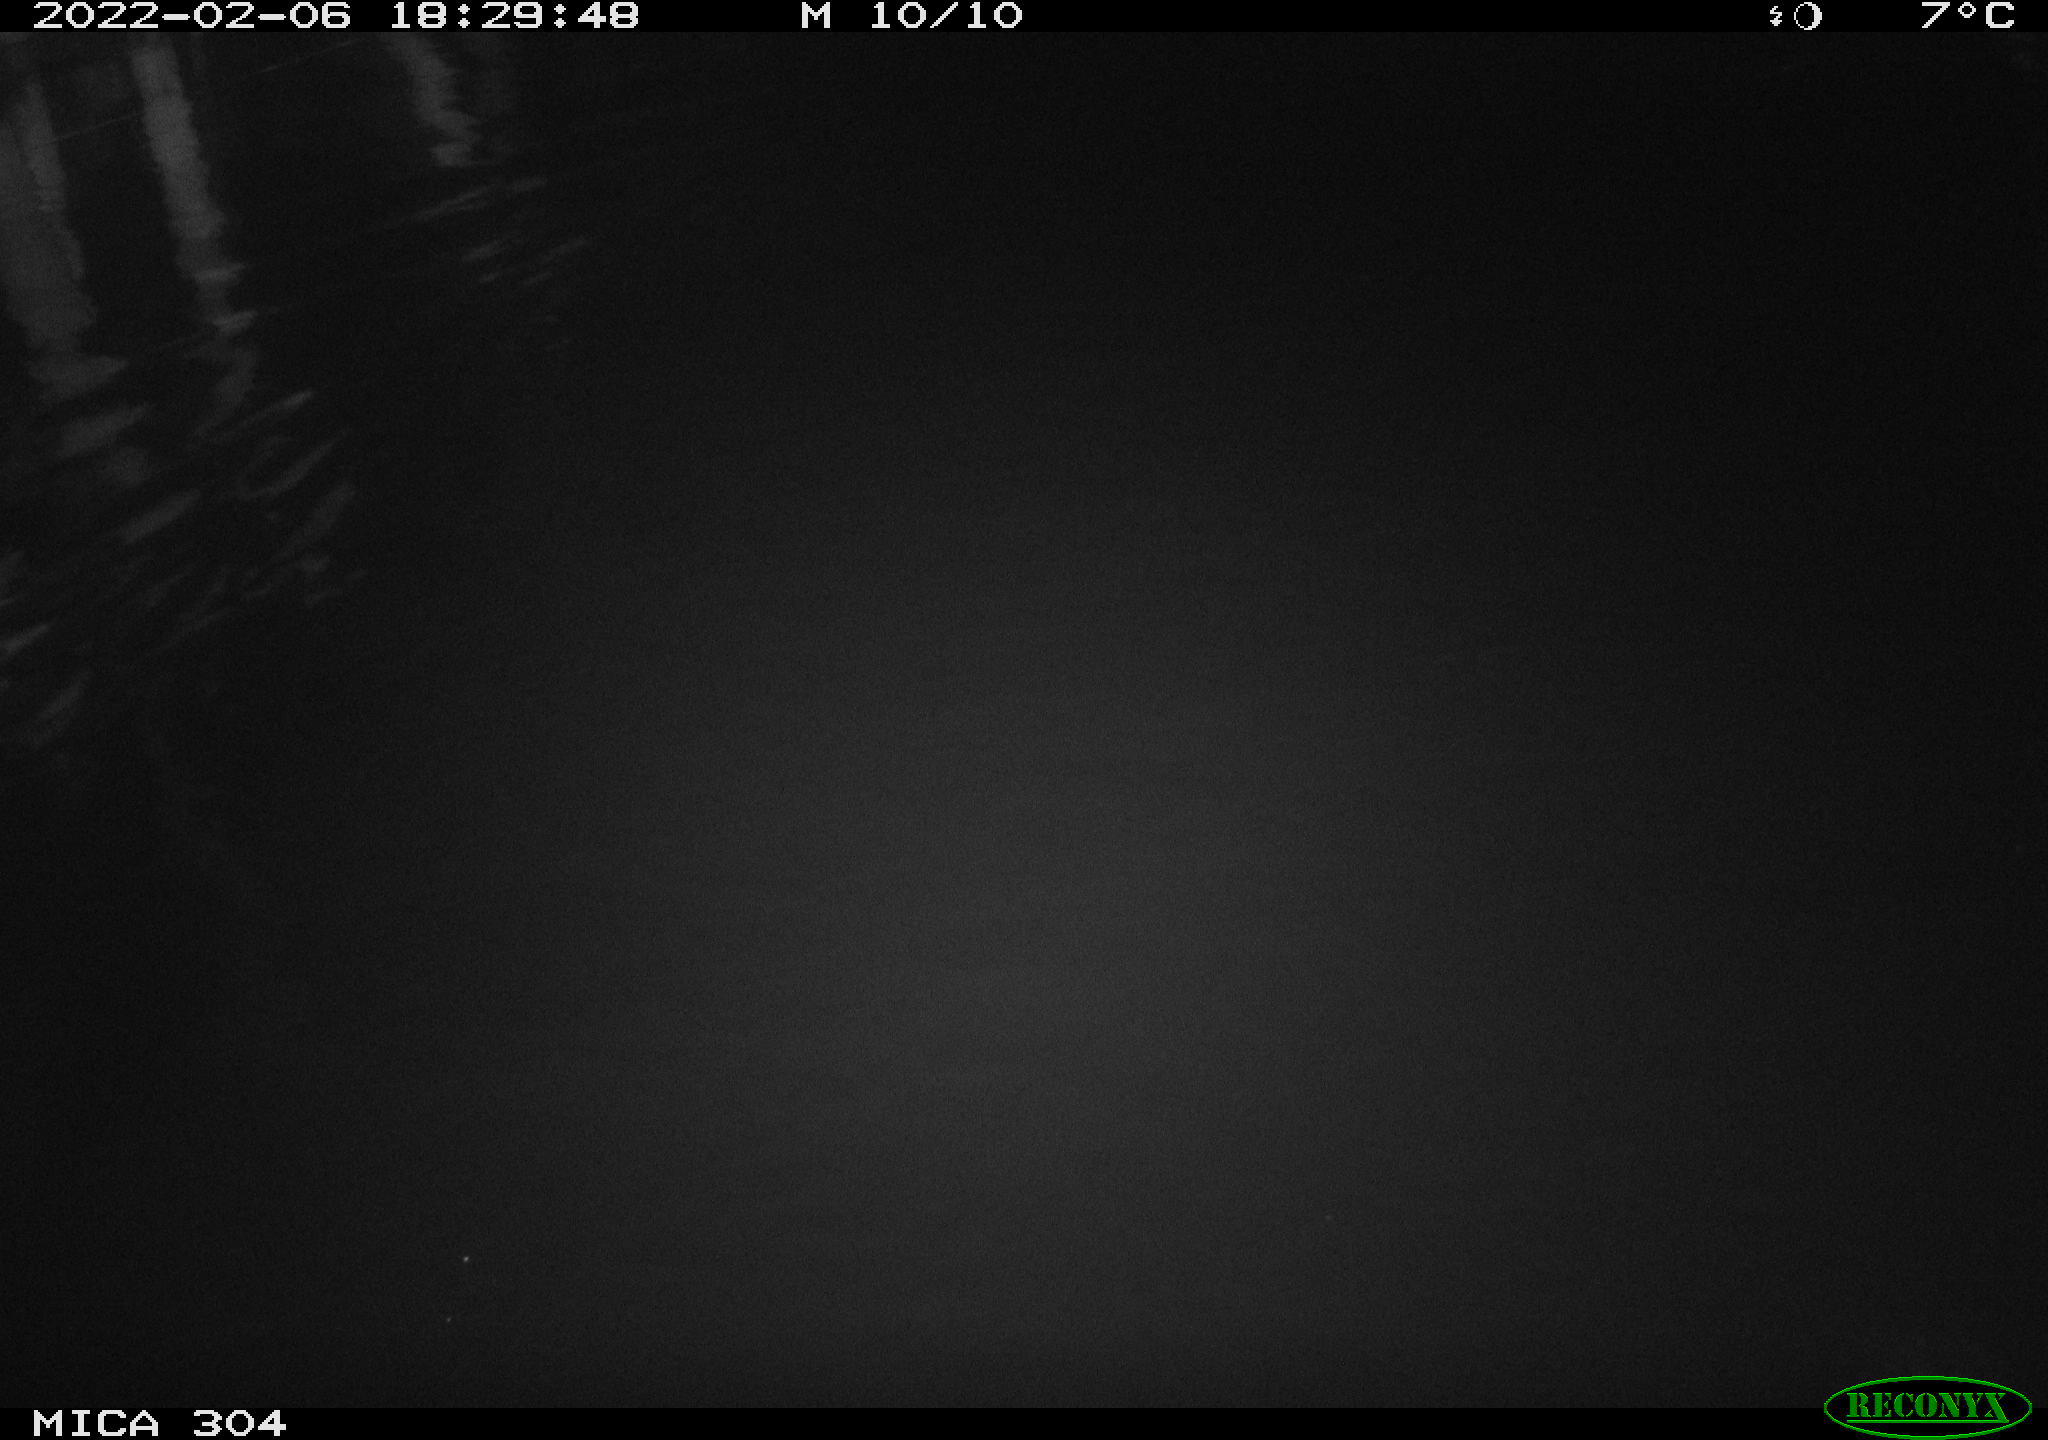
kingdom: Animalia
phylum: Chordata
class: Mammalia
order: Rodentia
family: Cricetidae
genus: Ondatra
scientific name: Ondatra zibethicus
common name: Muskrat
